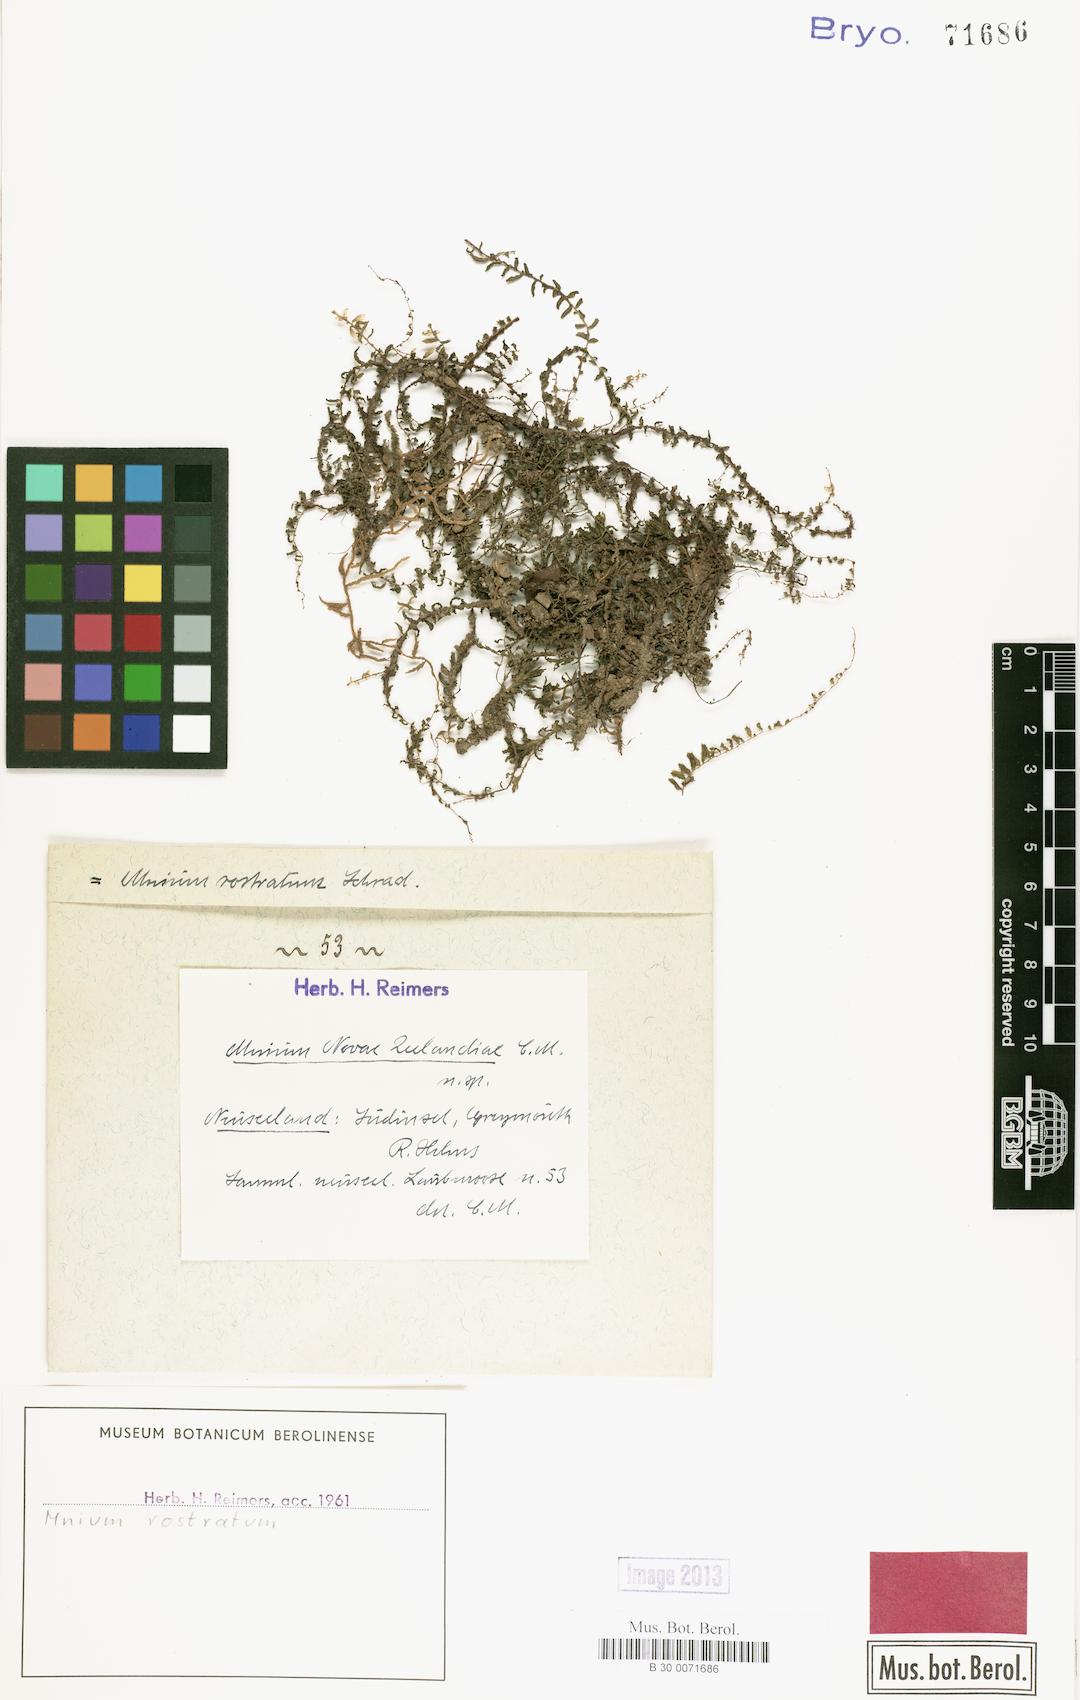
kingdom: Plantae
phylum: Bryophyta
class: Bryopsida
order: Bryales
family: Mniaceae
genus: Plagiomnium
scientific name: Plagiomnium rostratum
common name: Long-beaked leafy moss
